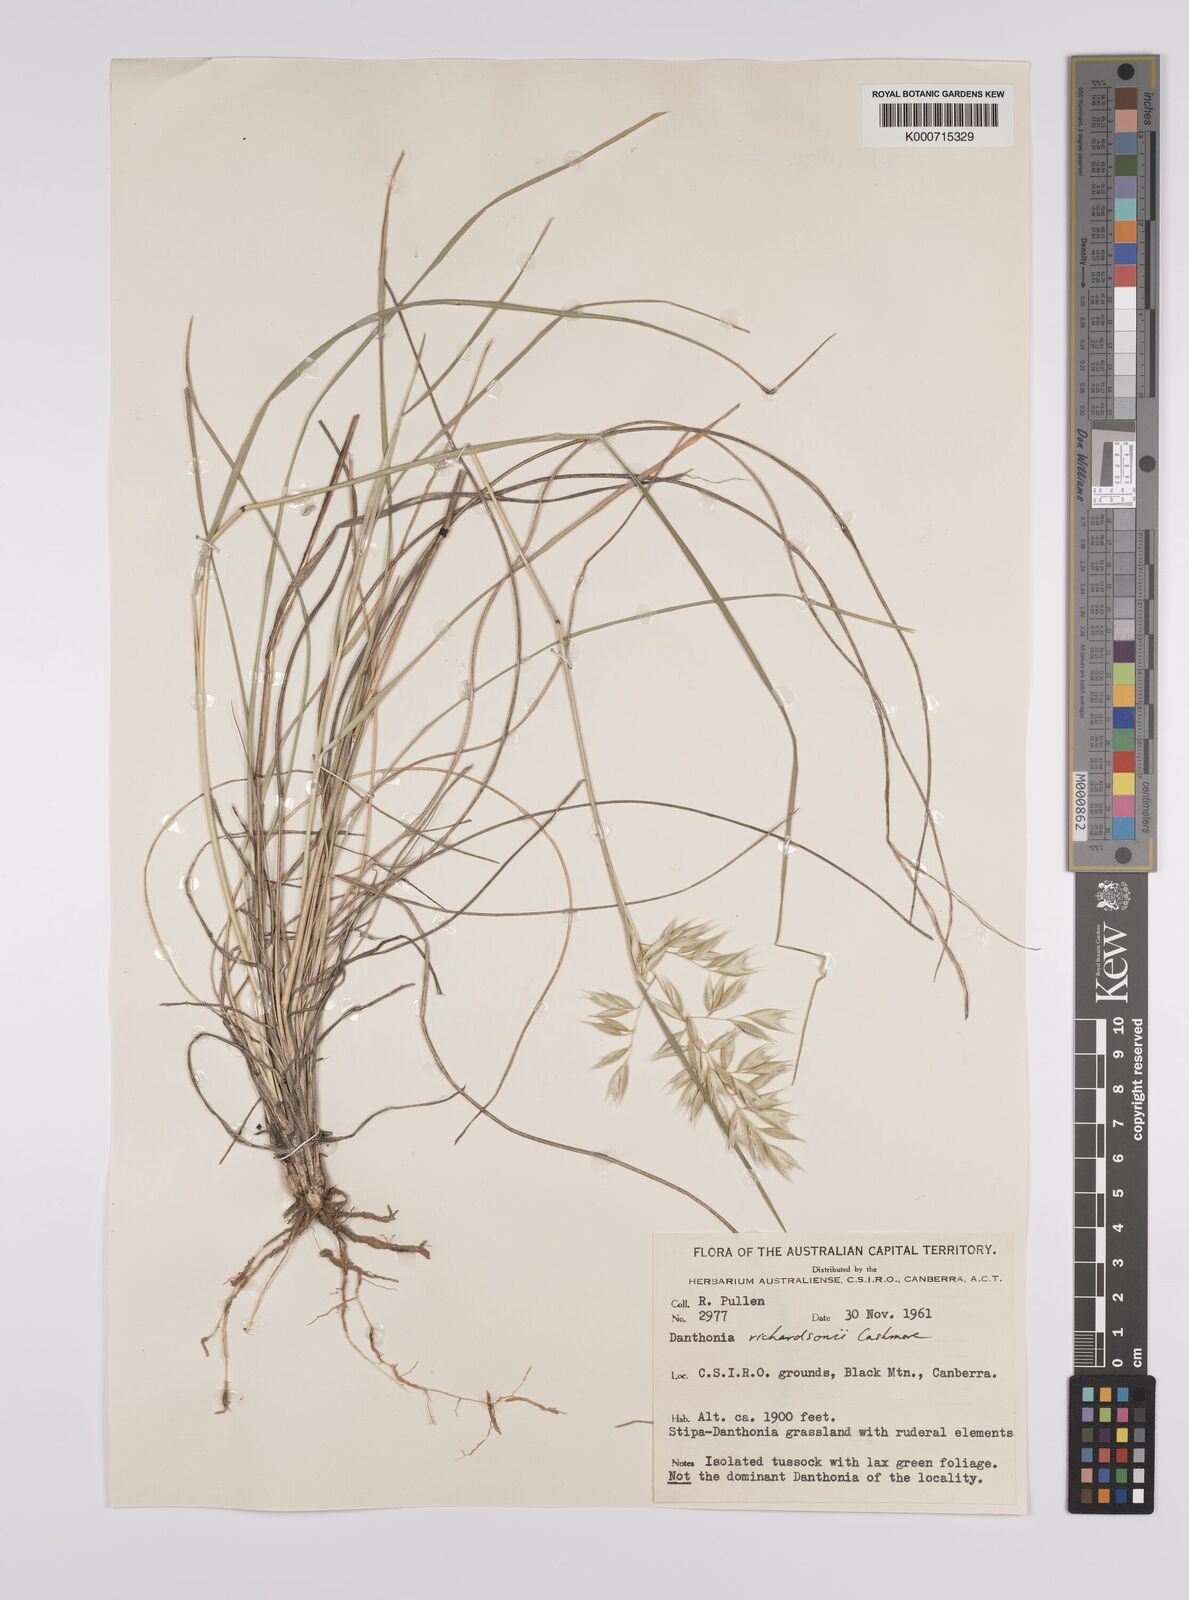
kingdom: Plantae
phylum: Tracheophyta
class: Liliopsida
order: Poales
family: Poaceae
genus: Rytidosperma
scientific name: Rytidosperma richardsonii
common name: Straw wallaby-grass
